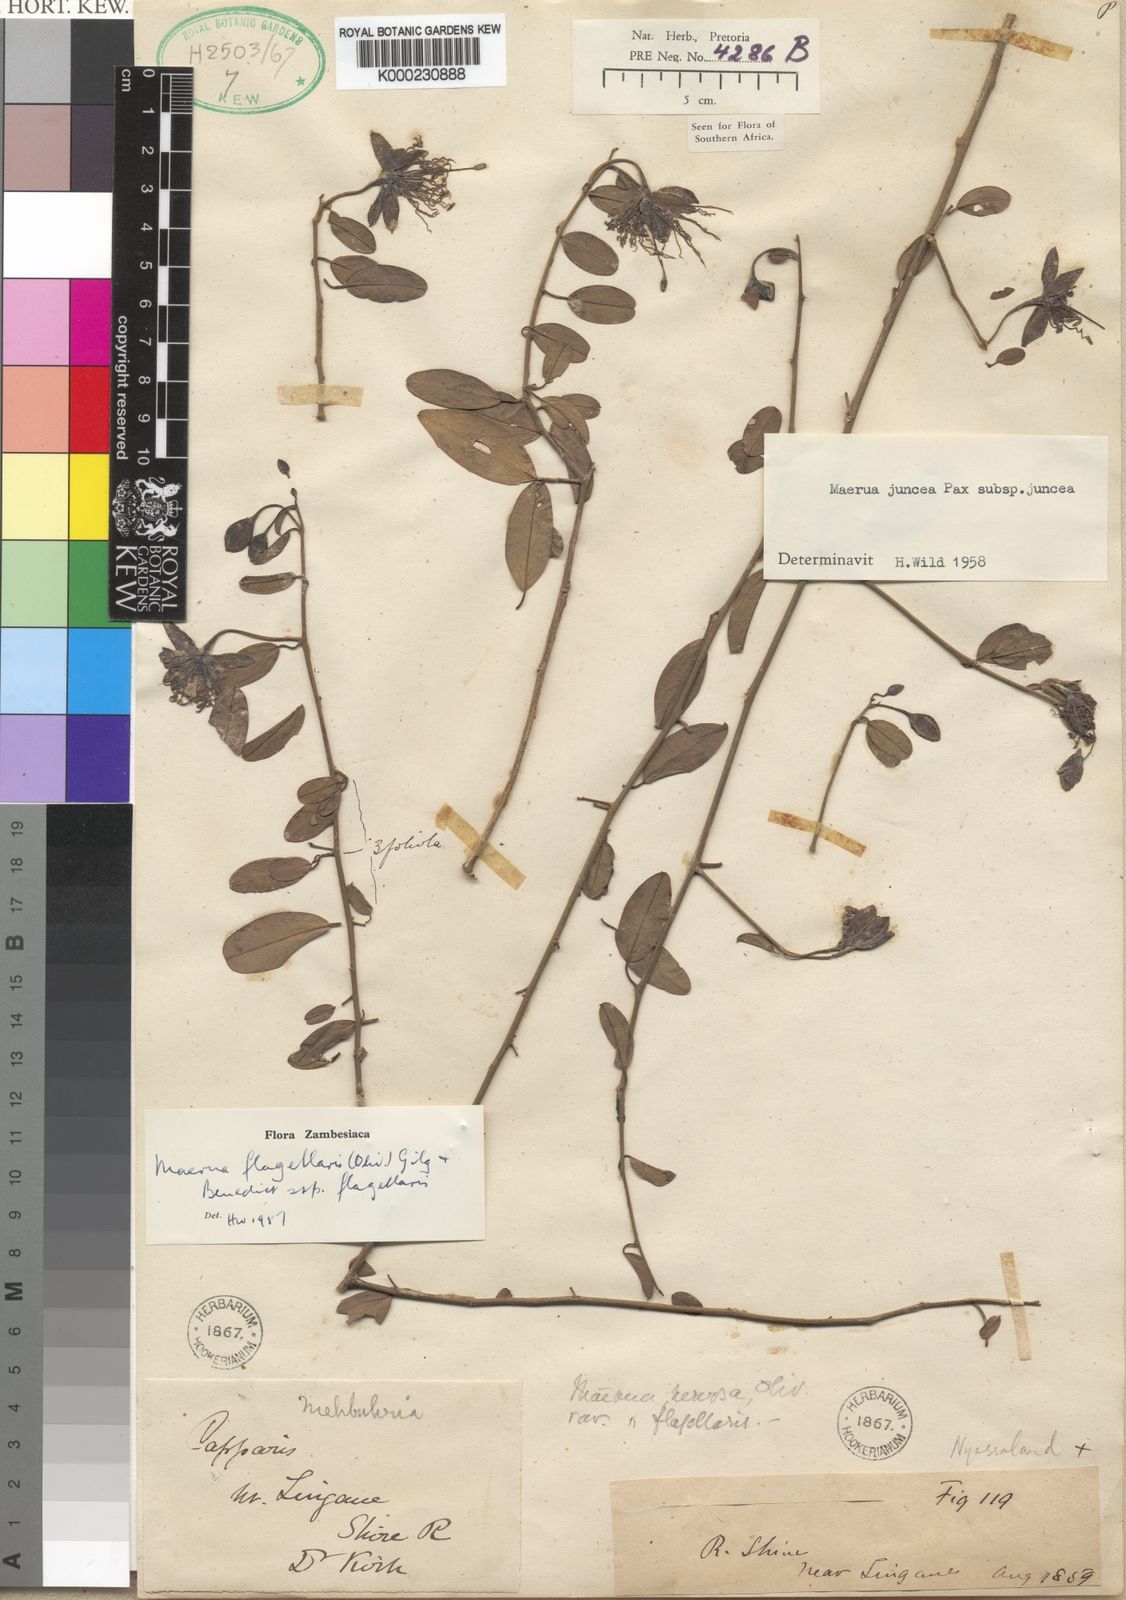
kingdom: Plantae
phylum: Tracheophyta
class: Magnoliopsida
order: Brassicales
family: Capparaceae
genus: Maerua
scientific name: Maerua juncea
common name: Rough-skinned bush cherry
